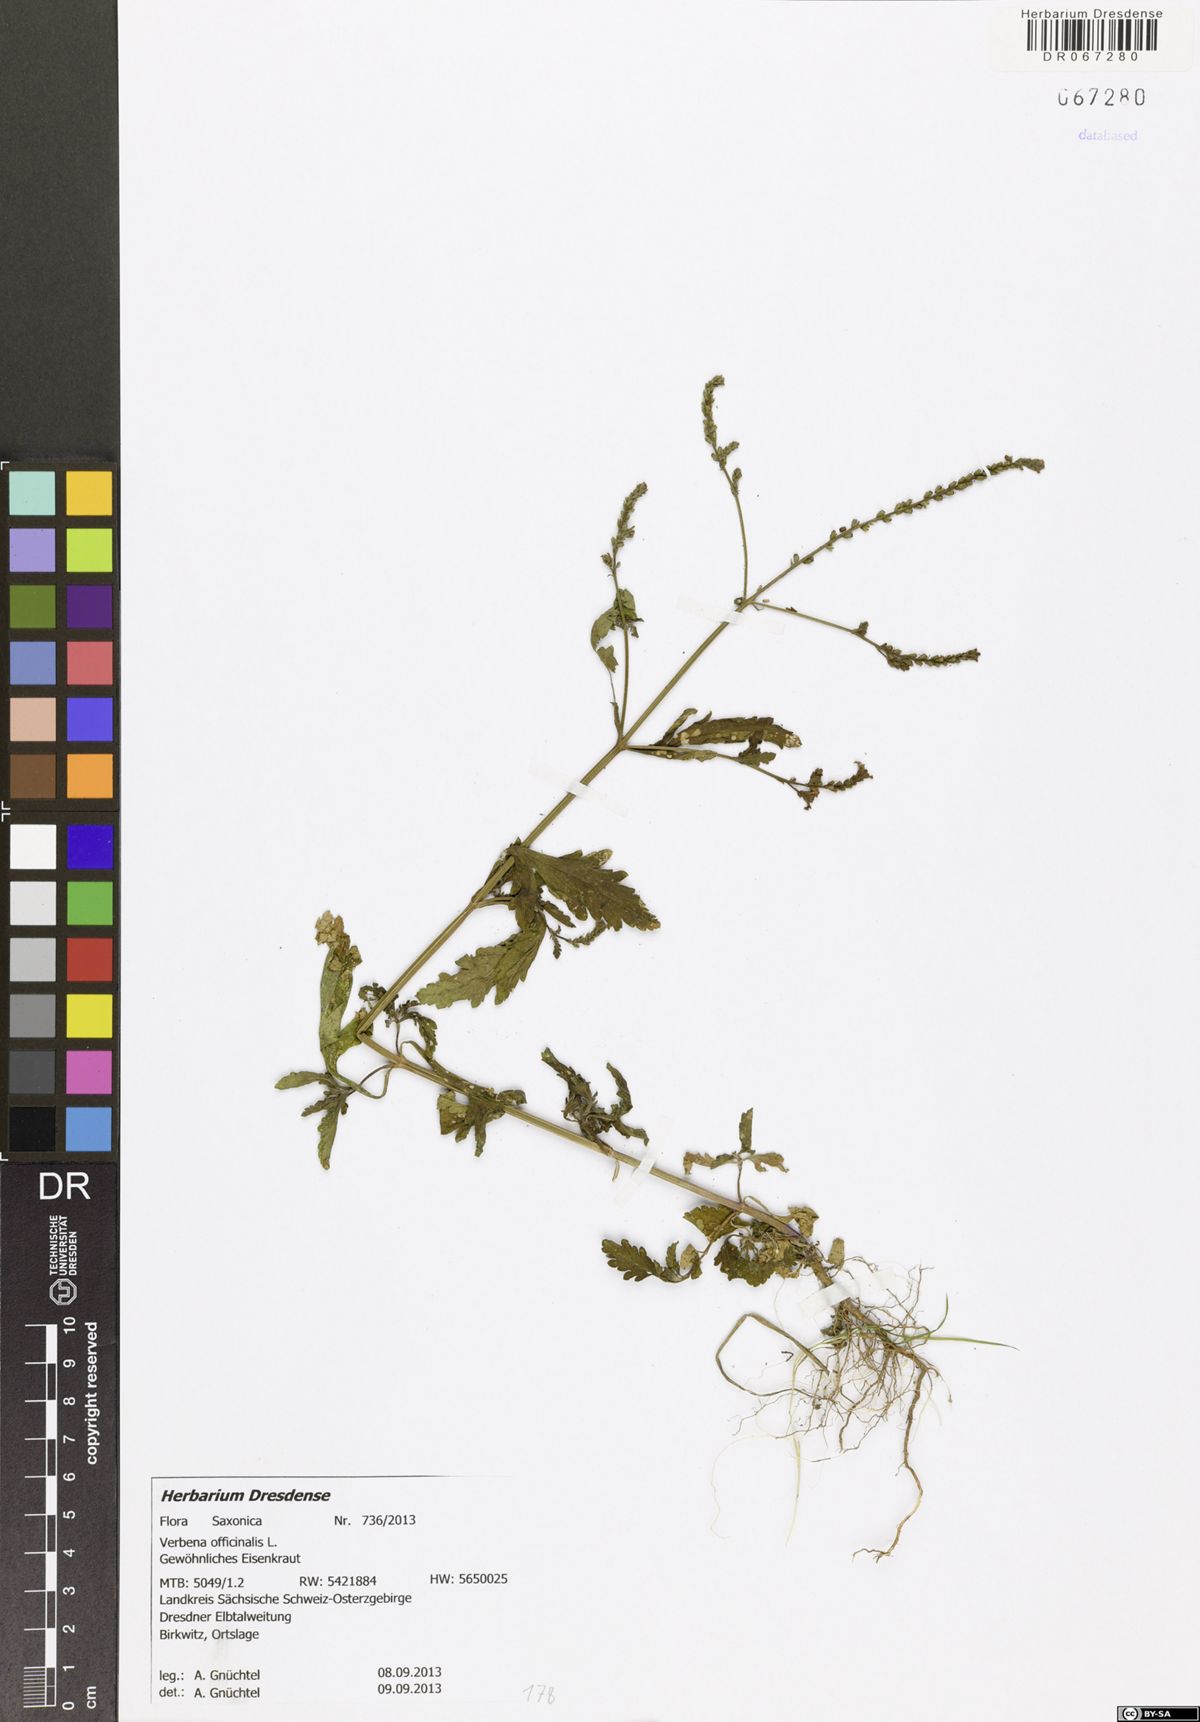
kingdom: Plantae
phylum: Tracheophyta
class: Magnoliopsida
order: Lamiales
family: Verbenaceae
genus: Verbena
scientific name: Verbena officinalis
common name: Vervain
